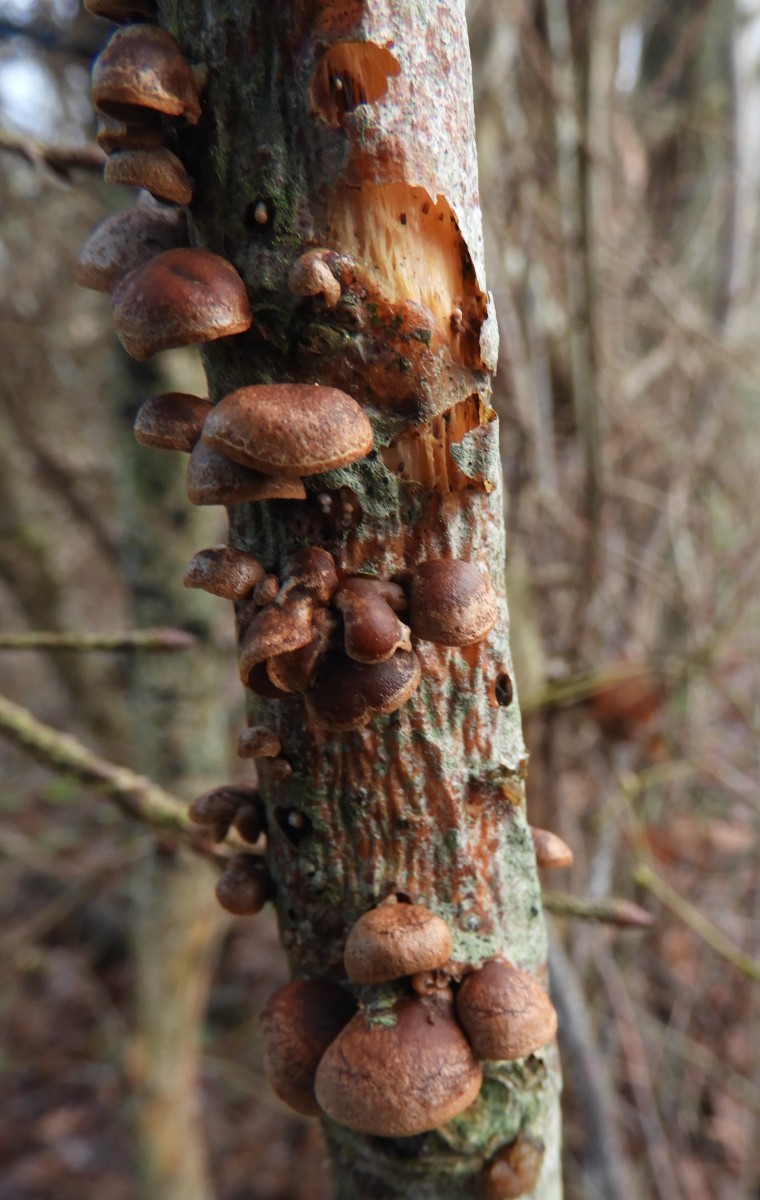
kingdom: Fungi
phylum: Basidiomycota
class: Agaricomycetes
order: Agaricales
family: Strophariaceae
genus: Deconica
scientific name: Deconica horizontalis
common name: ved-stråhat
